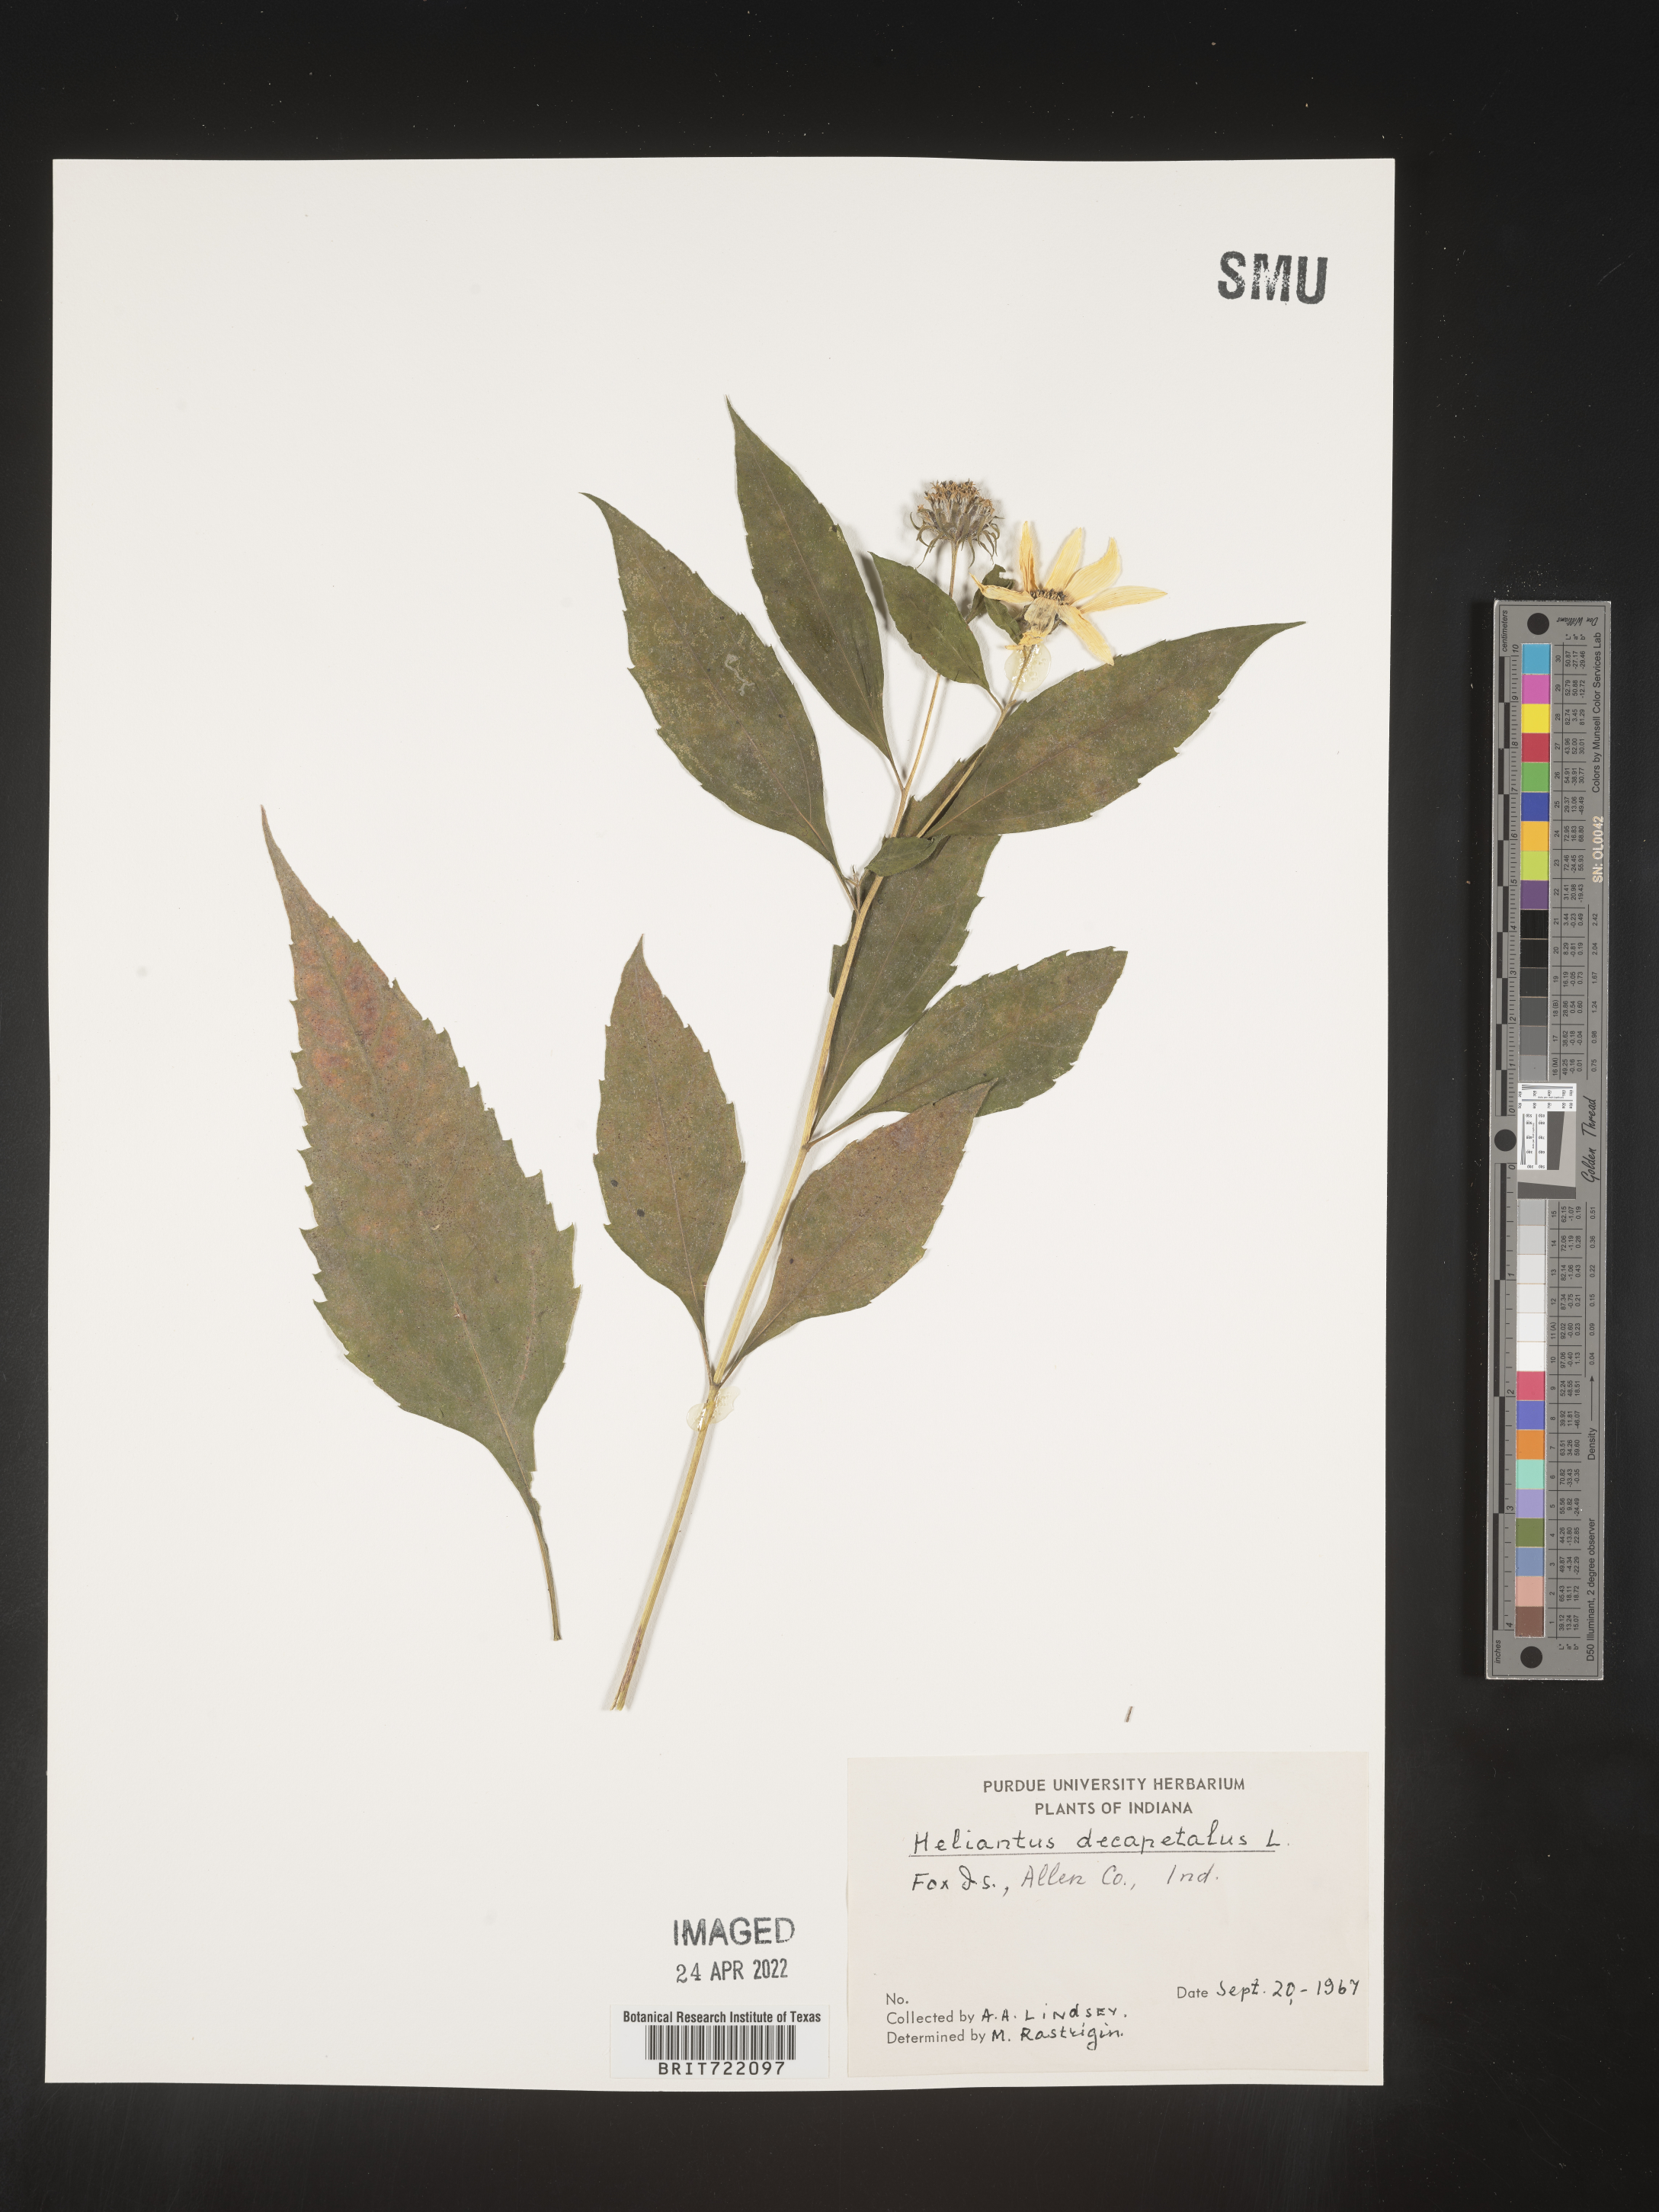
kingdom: Plantae
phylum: Tracheophyta
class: Magnoliopsida
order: Asterales
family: Asteraceae
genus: Helianthus
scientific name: Helianthus decapetalus
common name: Thin-leaved sunflower
